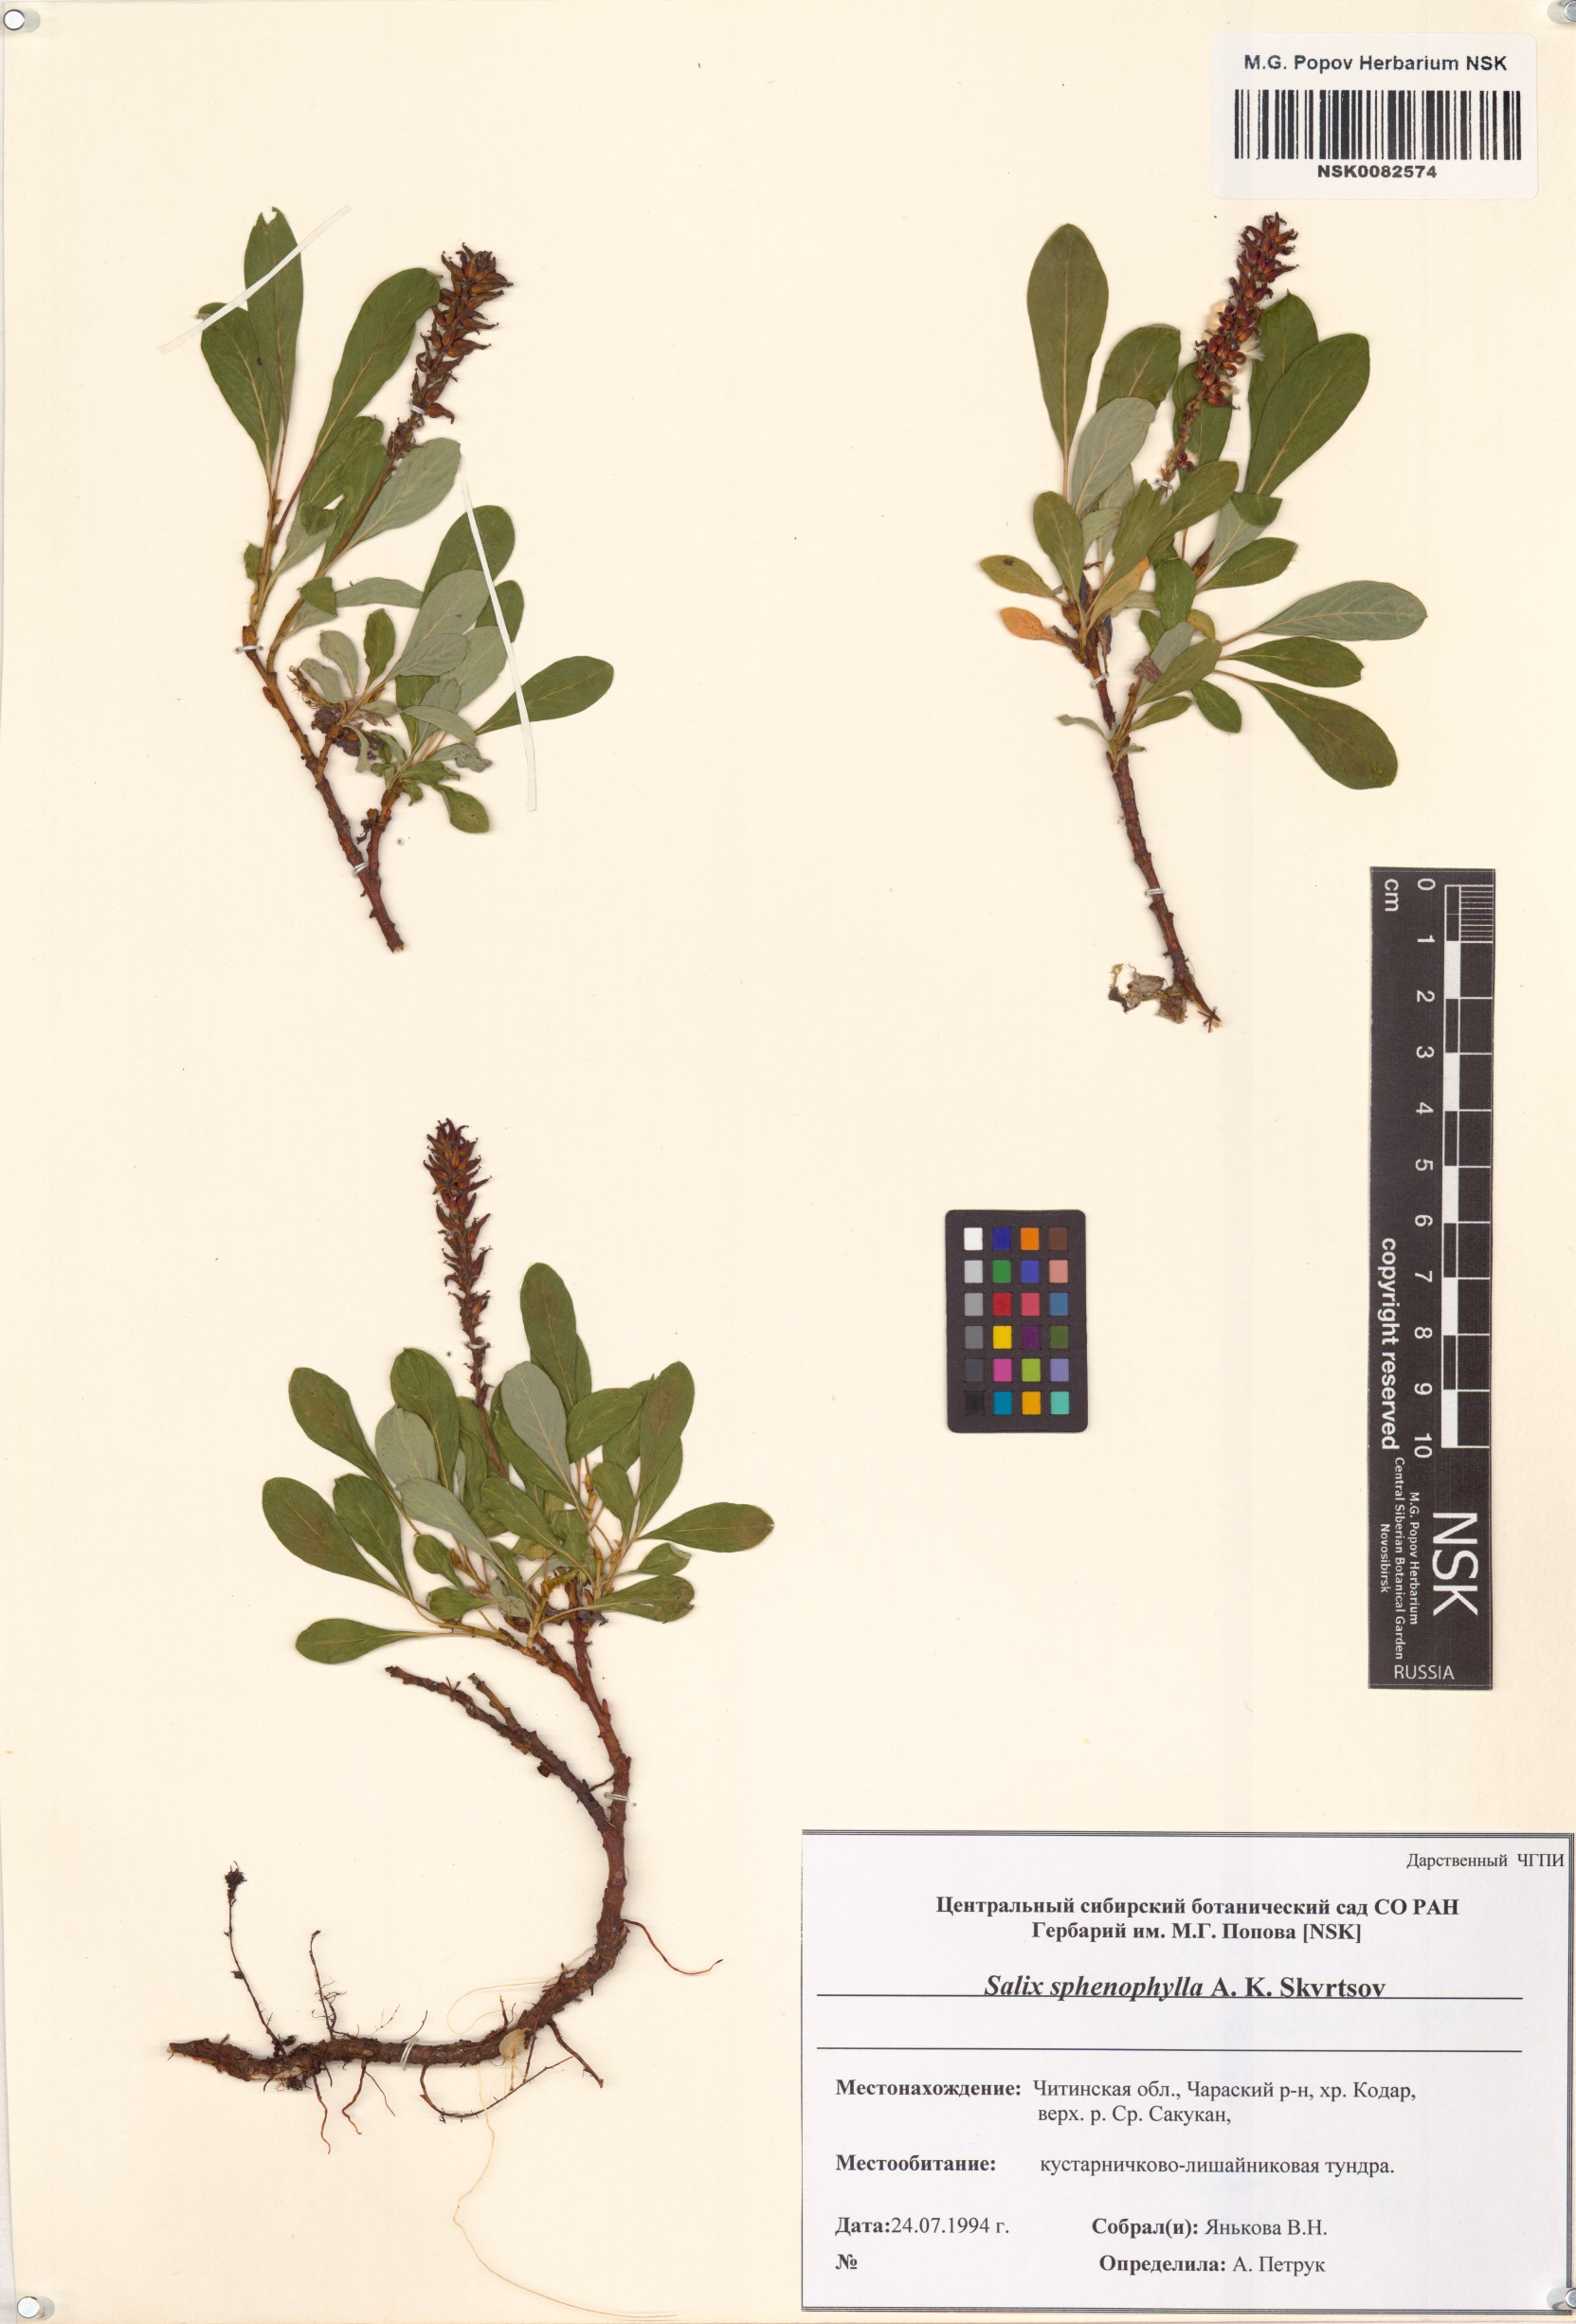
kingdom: Plantae
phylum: Tracheophyta
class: Magnoliopsida
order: Malpighiales
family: Salicaceae
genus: Salix
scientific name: Salix sphenophylla
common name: Wedge-leaved willow
